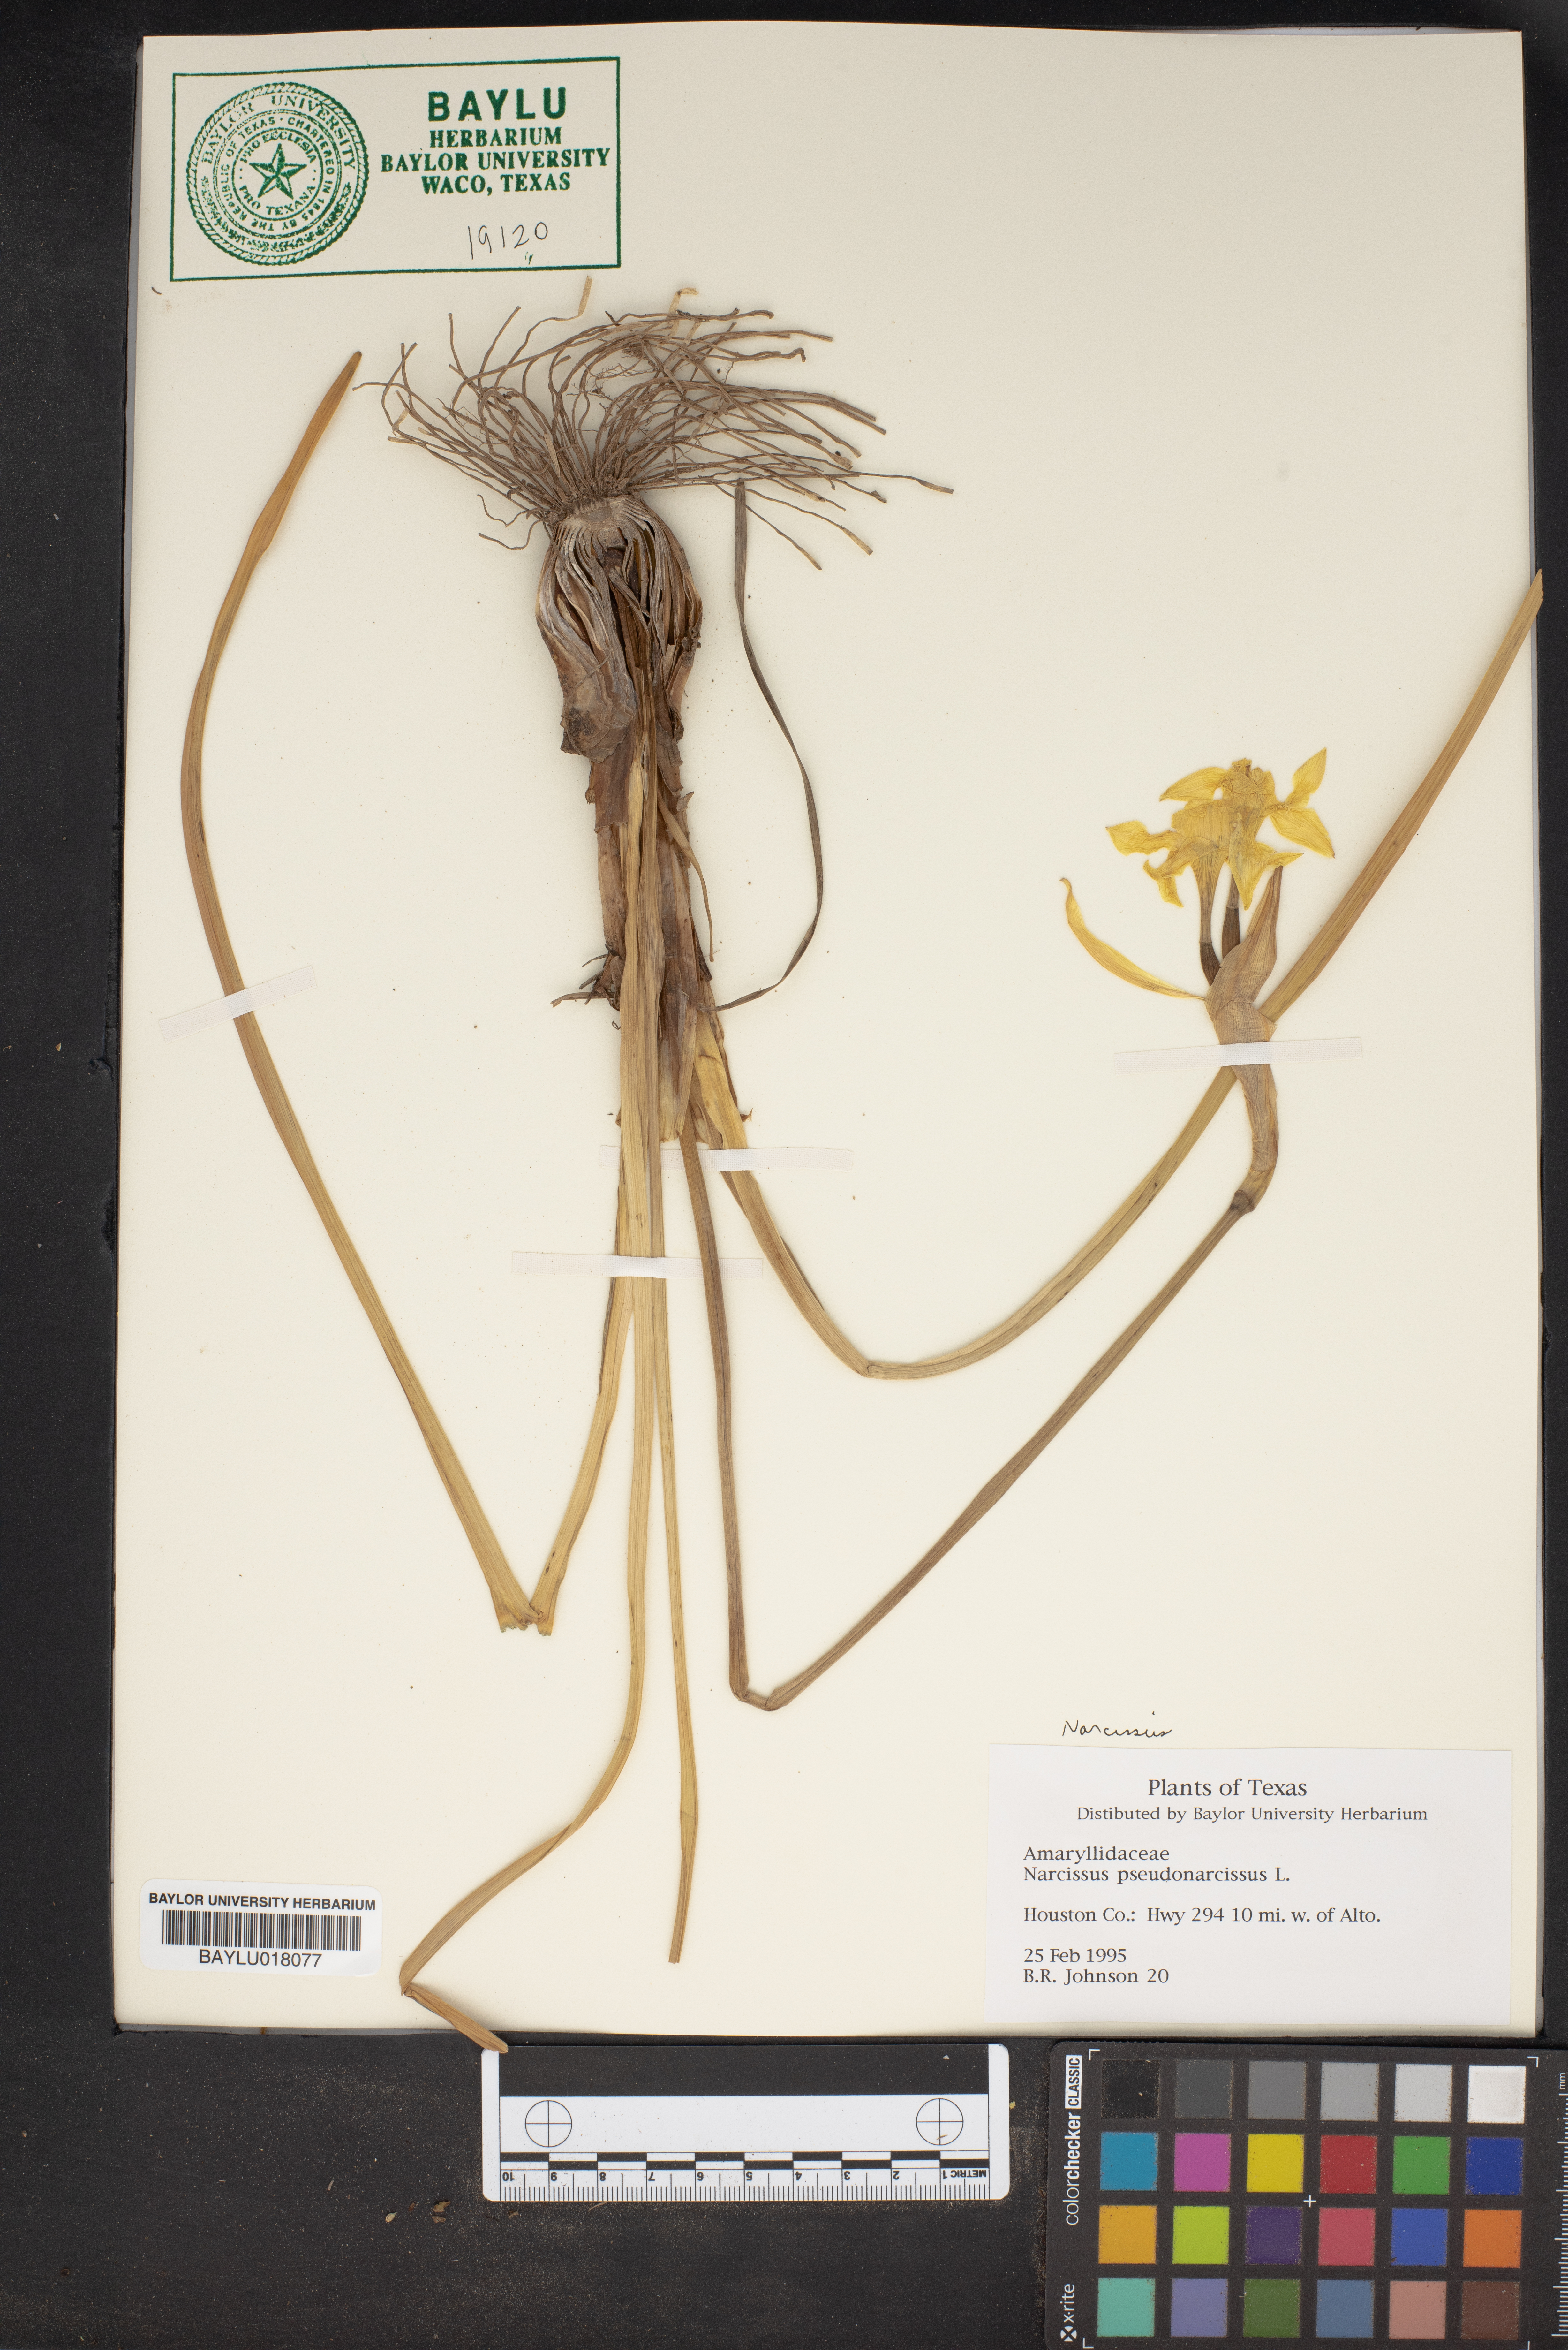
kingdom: Plantae
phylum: Tracheophyta
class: Liliopsida
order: Asparagales
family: Amaryllidaceae
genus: Narcissus
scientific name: Narcissus pseudonarcissus
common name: Daffodil
